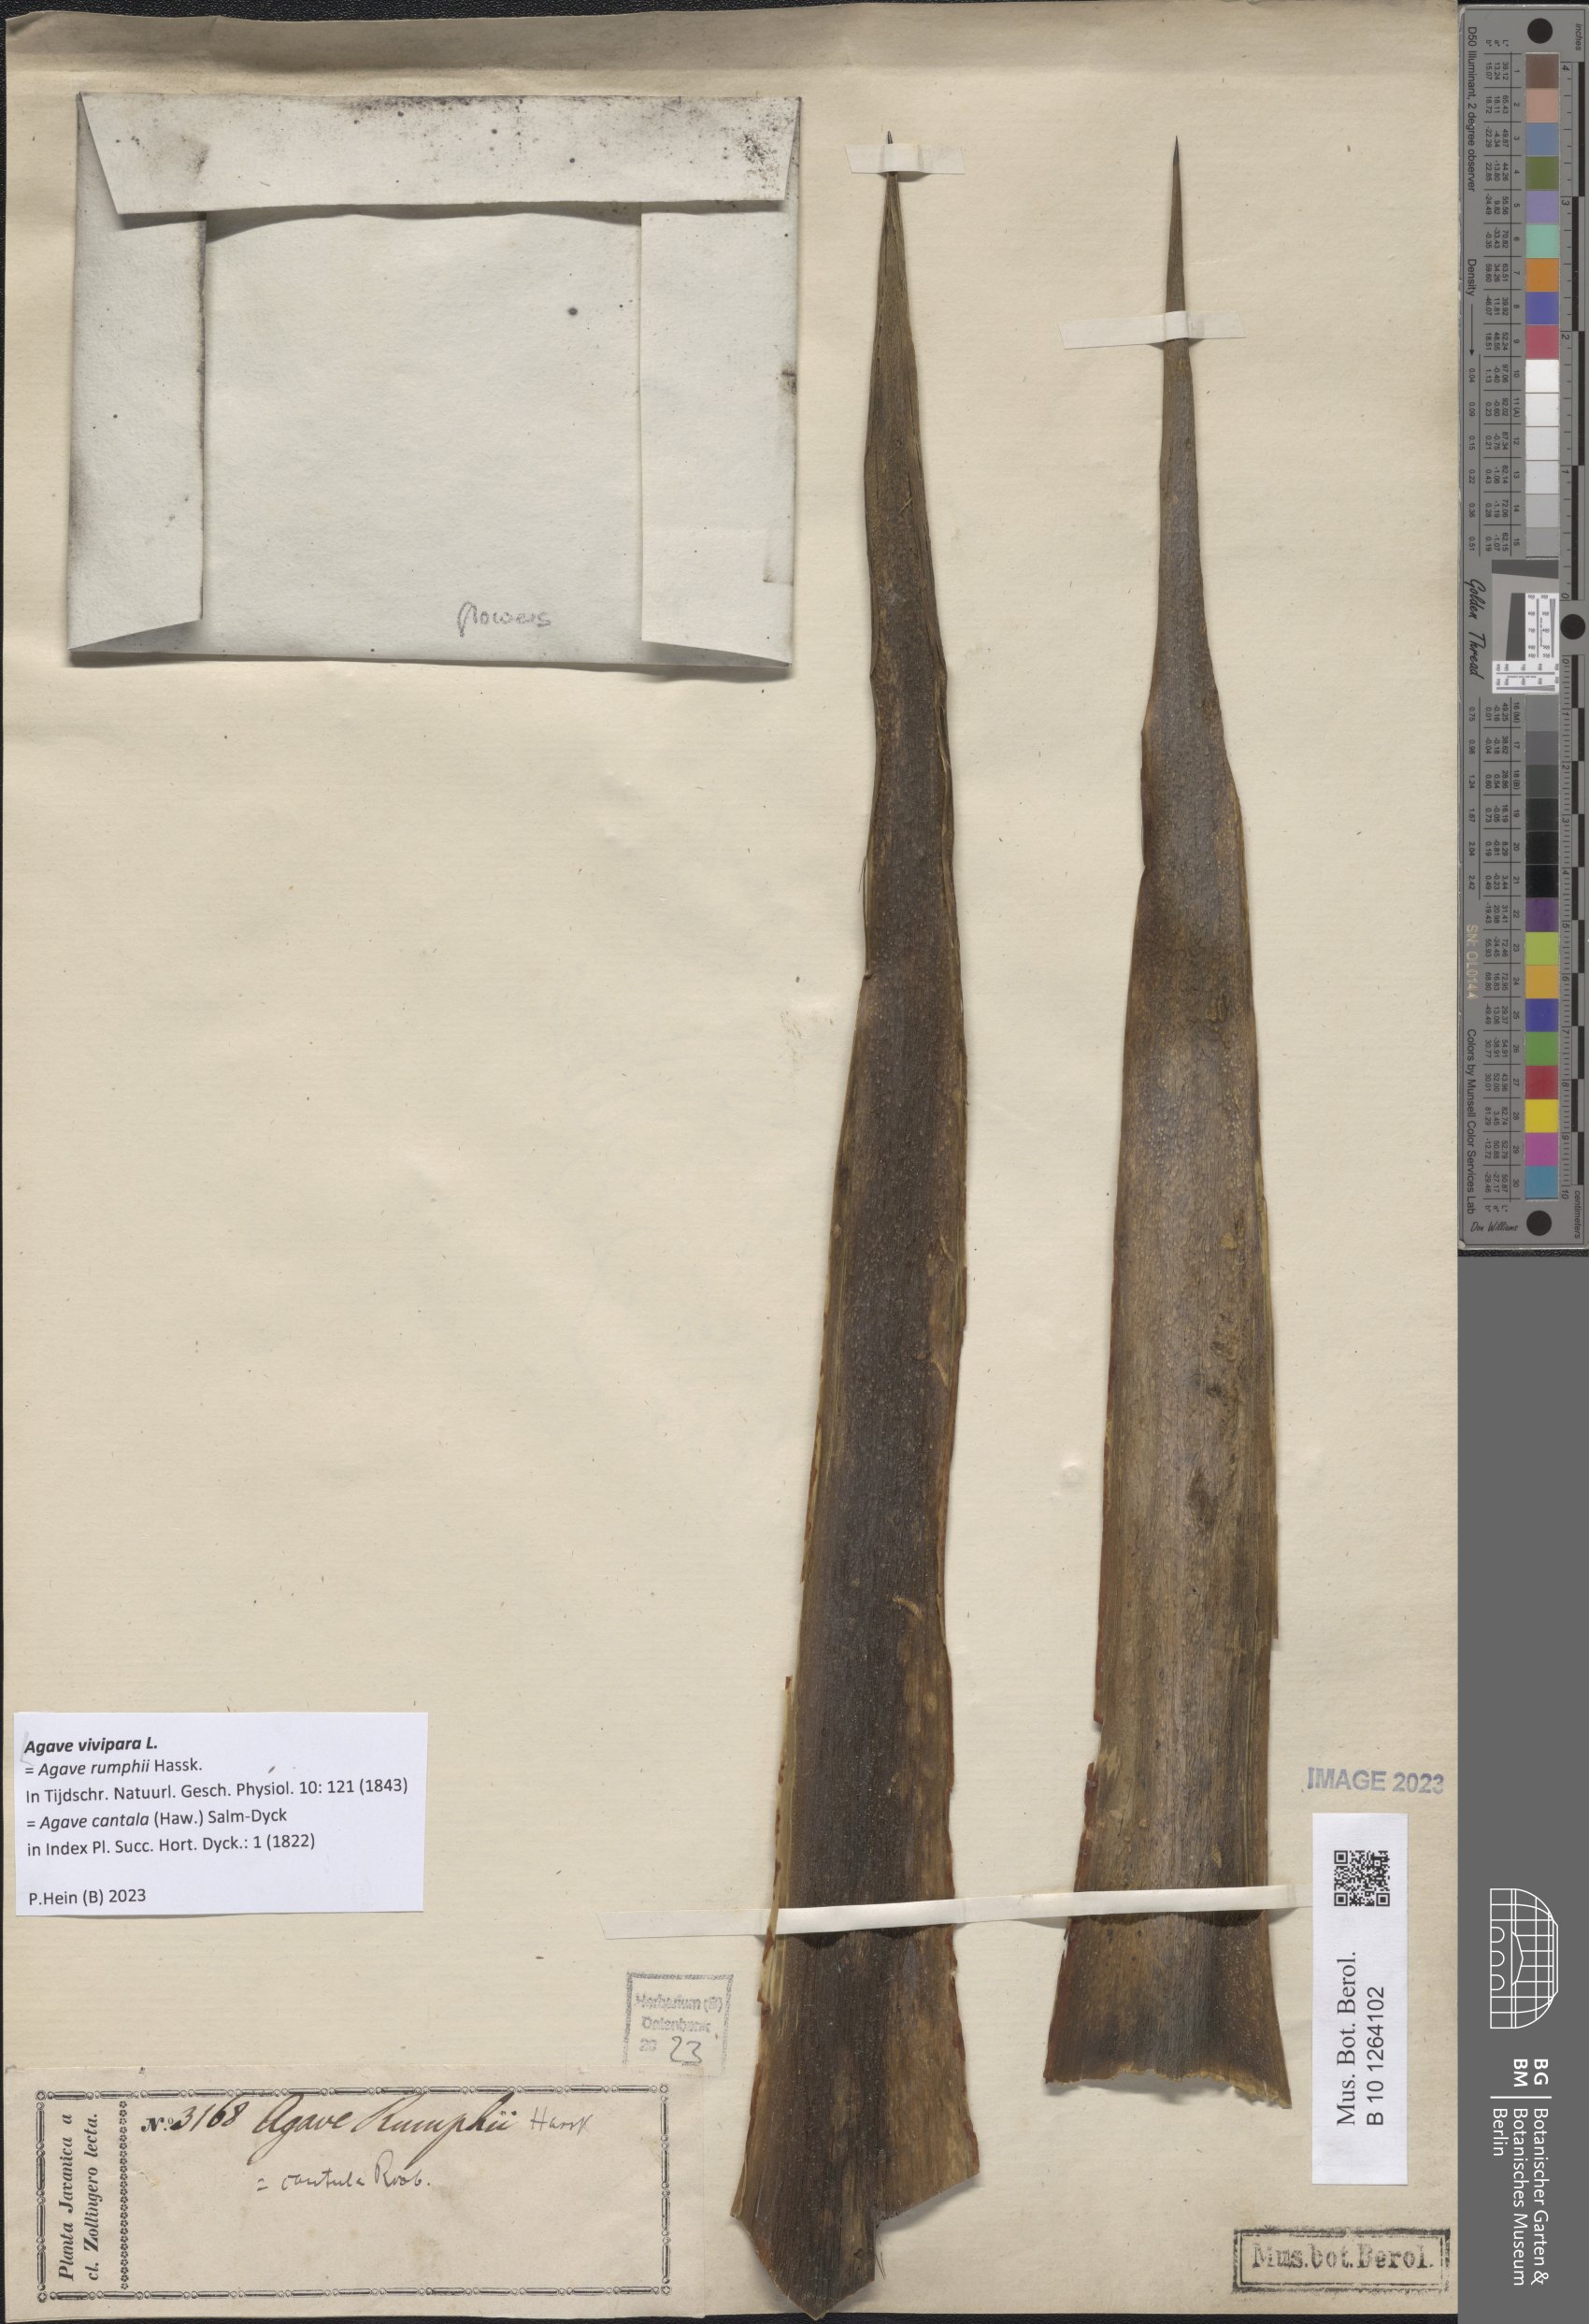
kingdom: Plantae
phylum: Tracheophyta
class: Liliopsida
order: Asparagales
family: Asparagaceae
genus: Agave
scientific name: Agave vivipara
